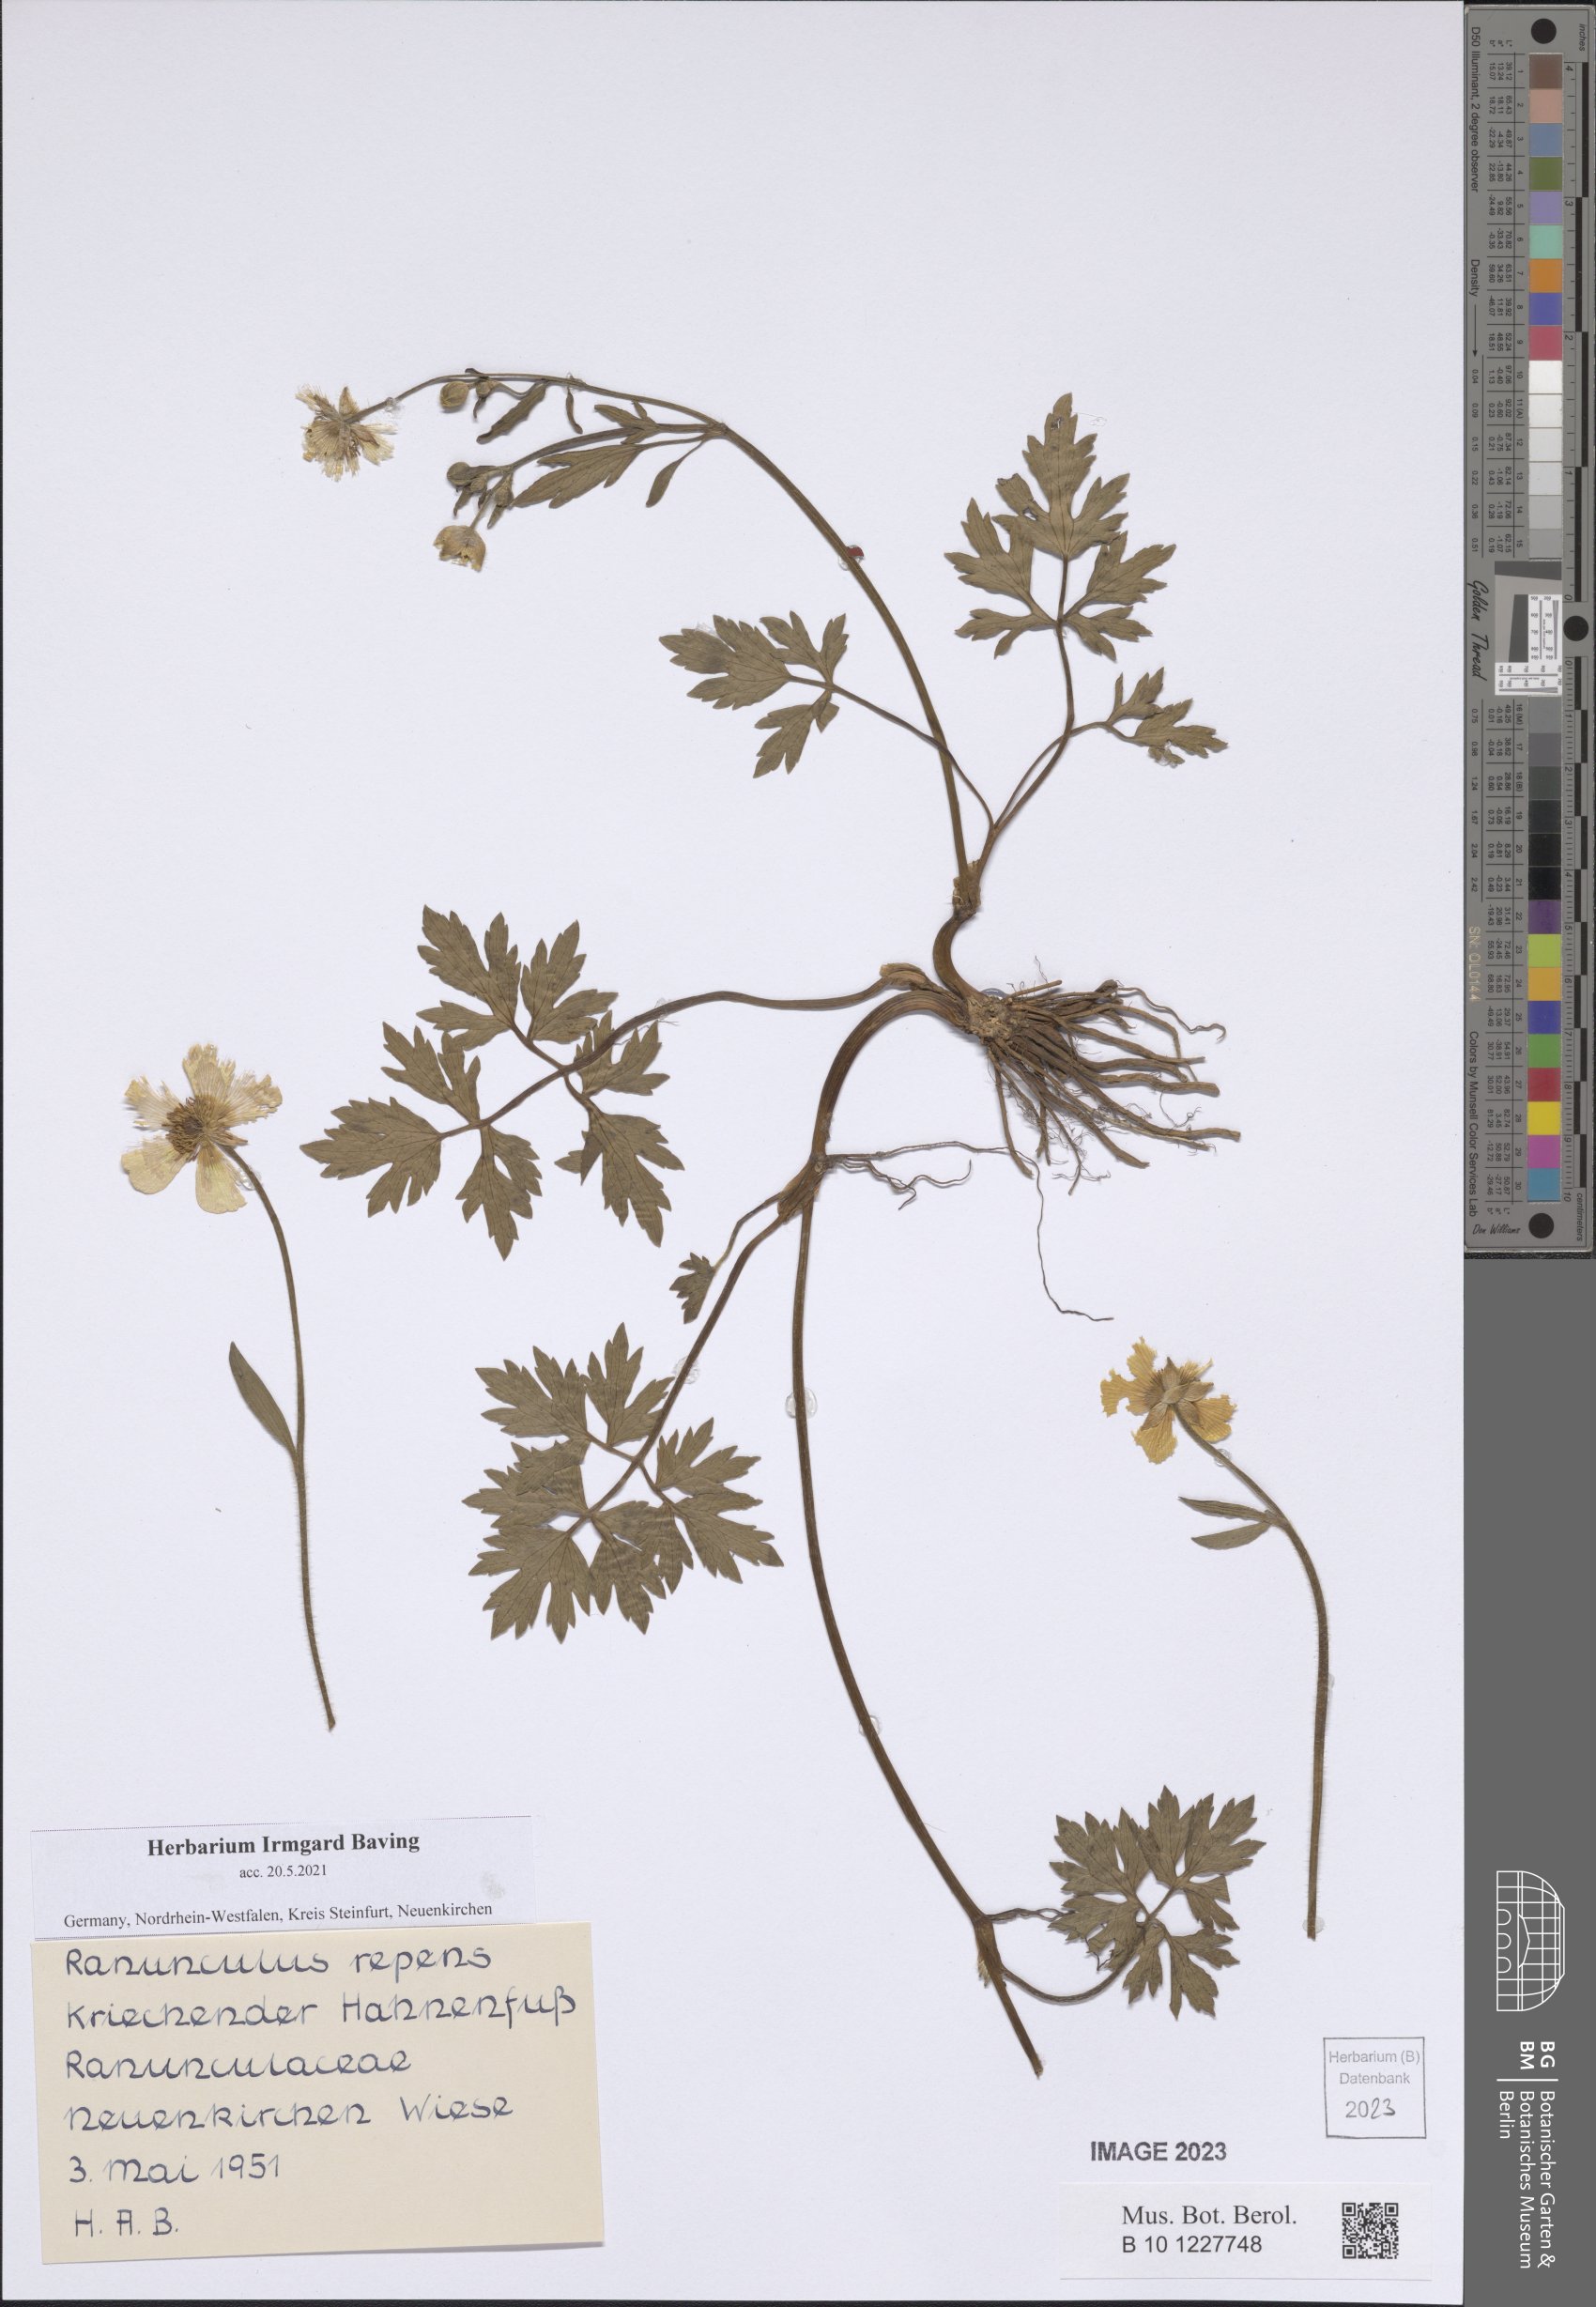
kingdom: Plantae
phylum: Tracheophyta
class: Magnoliopsida
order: Ranunculales
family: Ranunculaceae
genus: Ranunculus
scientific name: Ranunculus repens
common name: Creeping buttercup
